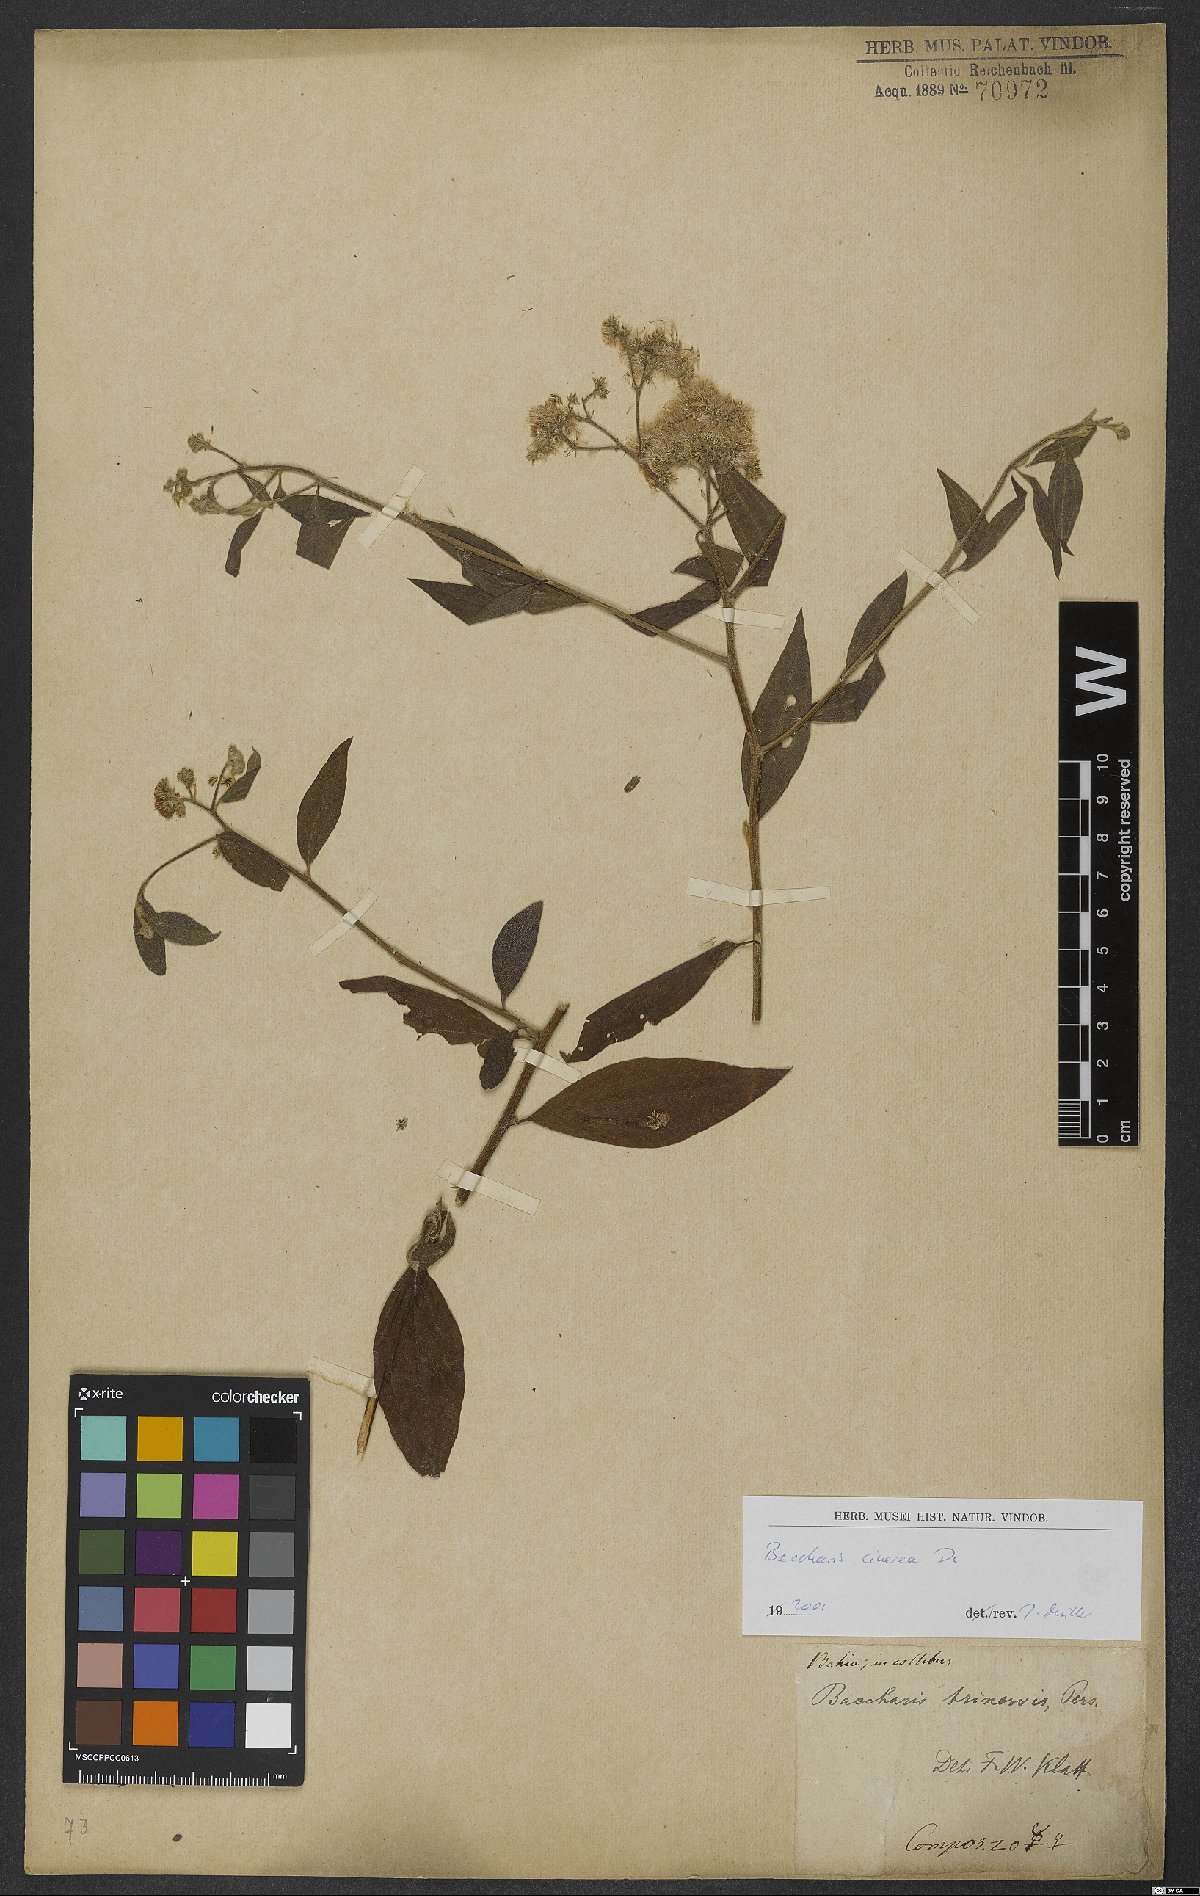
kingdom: Plantae
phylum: Tracheophyta
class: Magnoliopsida
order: Asterales
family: Asteraceae
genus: Baccharis
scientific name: Baccharis trinervis
